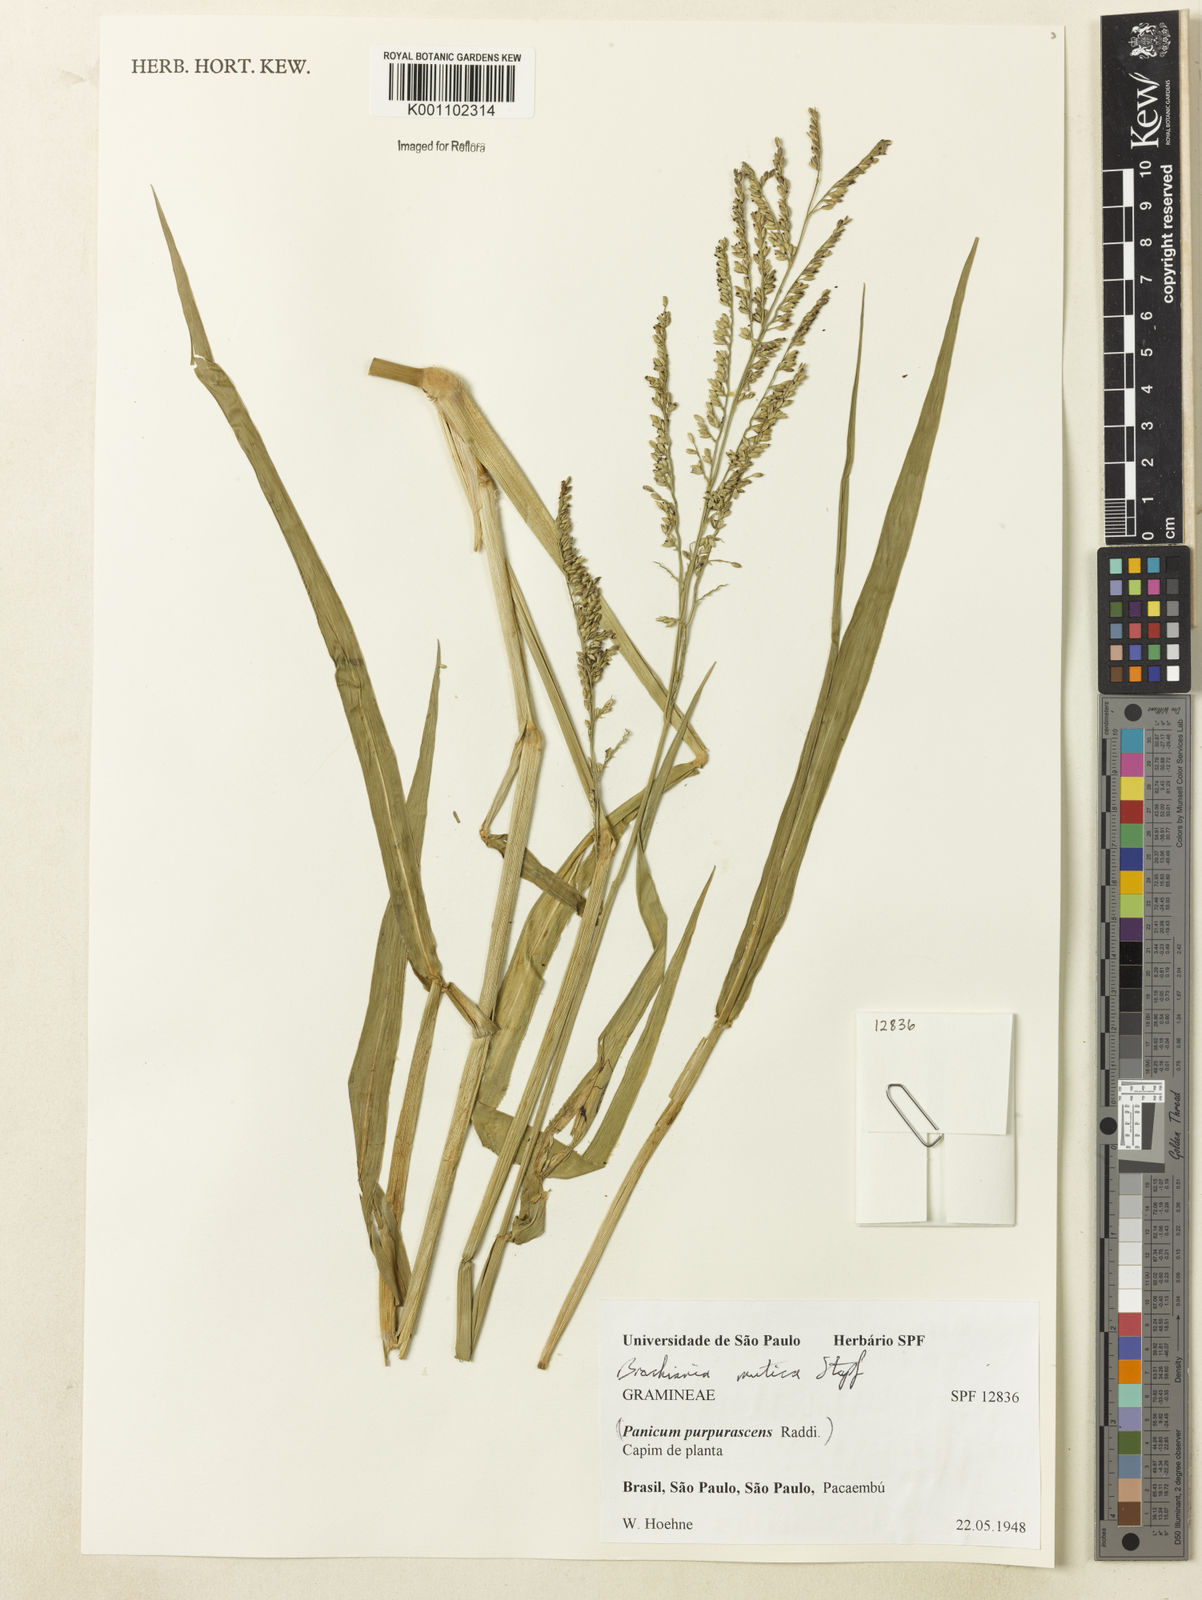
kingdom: Plantae
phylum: Tracheophyta
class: Liliopsida
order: Poales
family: Poaceae
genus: Urochloa
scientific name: Urochloa mutica
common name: Para grass
